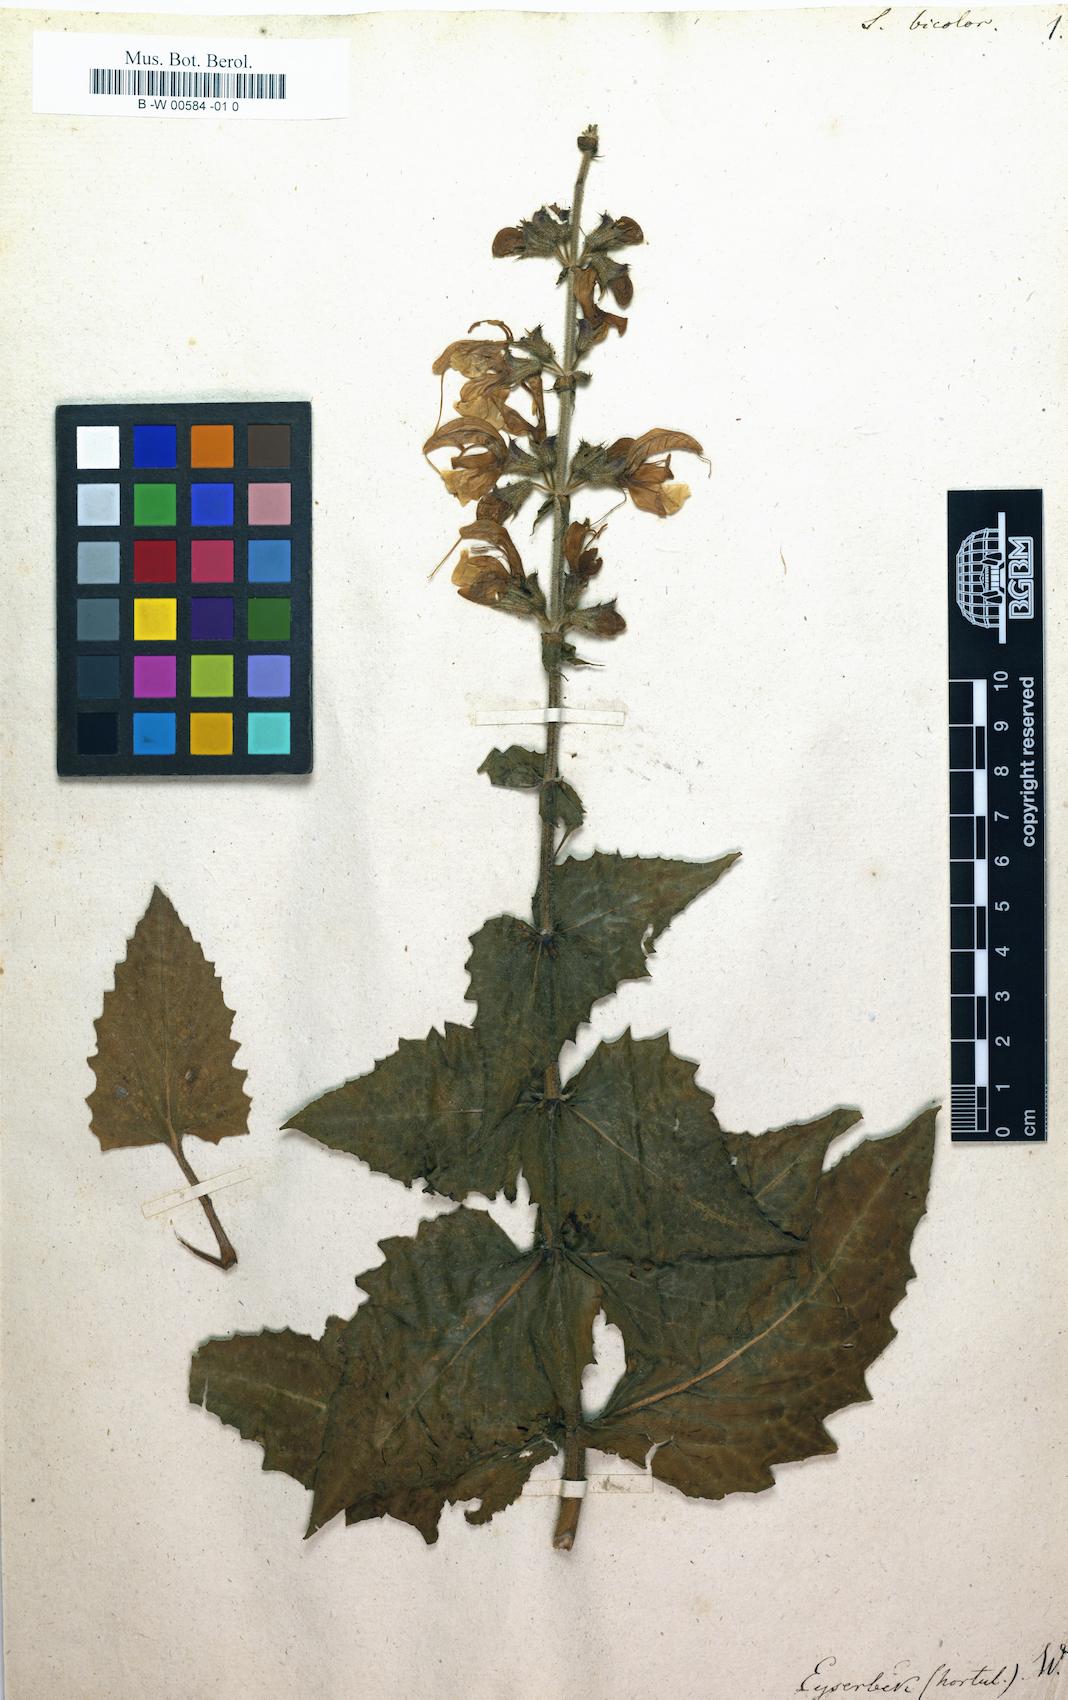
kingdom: Plantae
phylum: Tracheophyta
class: Magnoliopsida
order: Lamiales
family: Lamiaceae
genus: Salvia
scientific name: Salvia
